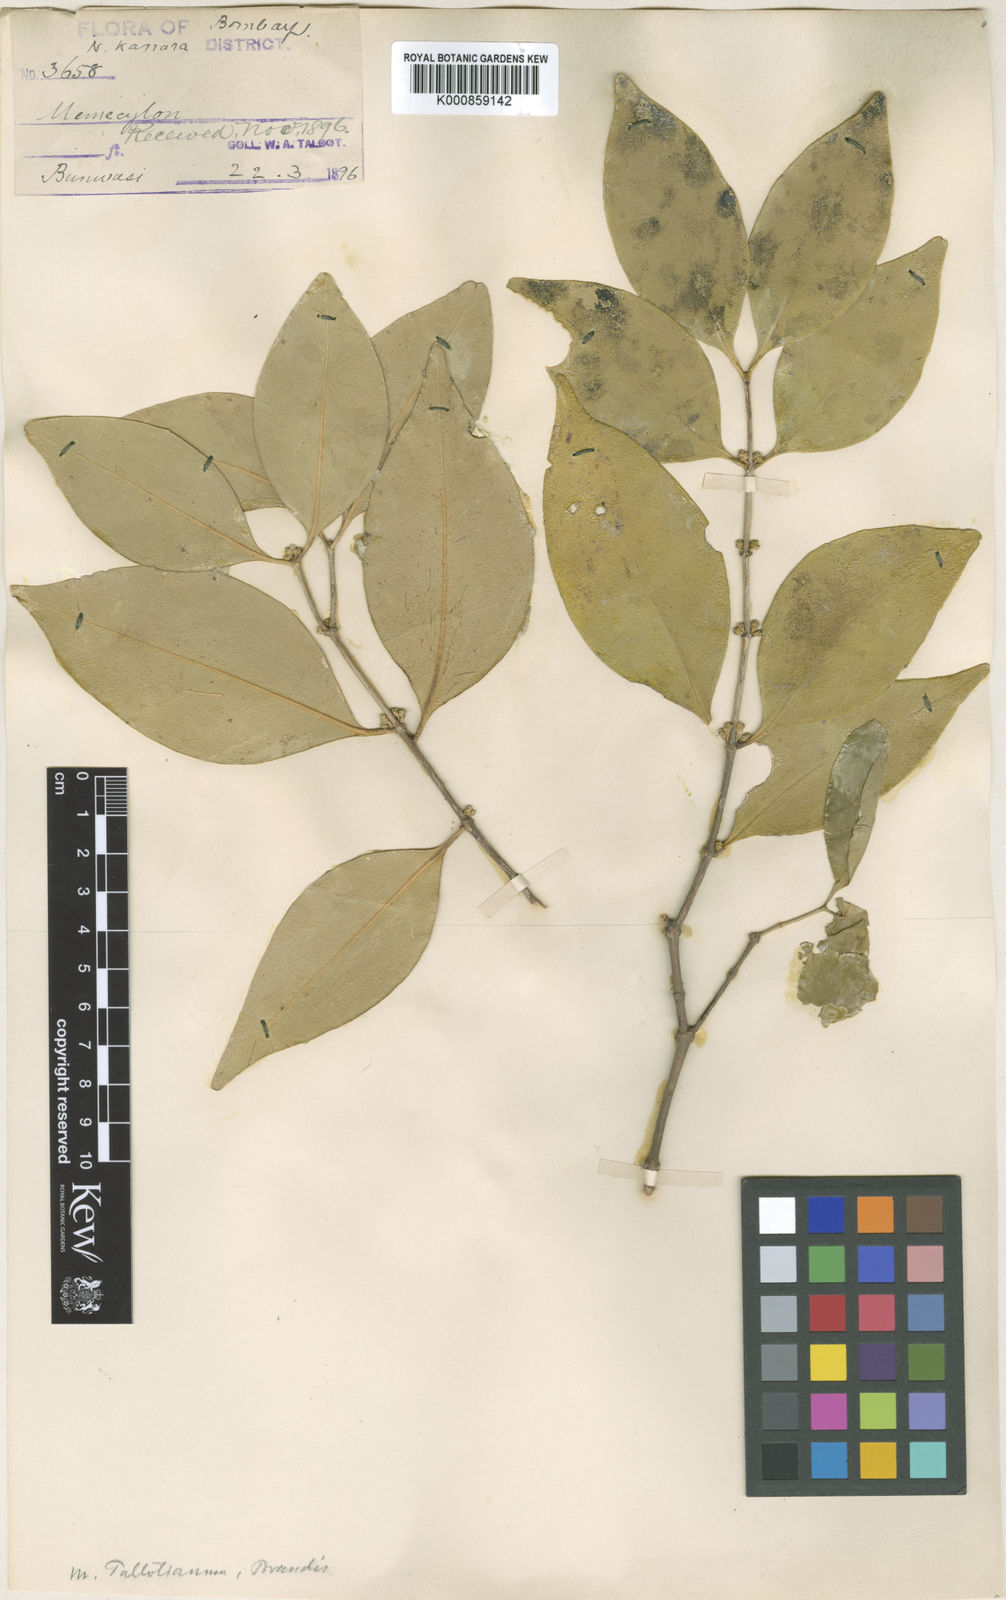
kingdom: Plantae
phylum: Tracheophyta
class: Magnoliopsida
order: Myrtales
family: Melastomataceae
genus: Memecylon
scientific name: Memecylon talbotianum
